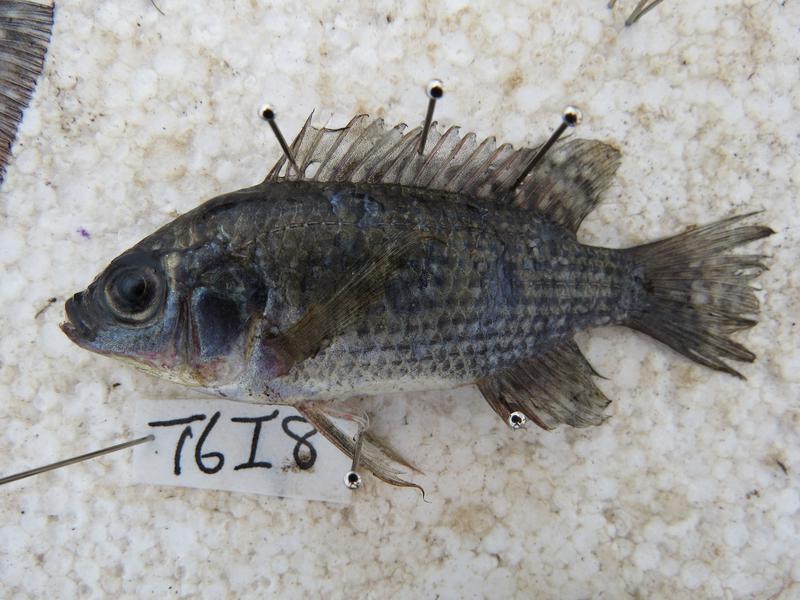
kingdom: Animalia
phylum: Chordata
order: Perciformes
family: Cichlidae
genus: Oreochromis
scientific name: Oreochromis leucostictus
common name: Blue spotted tilapia
